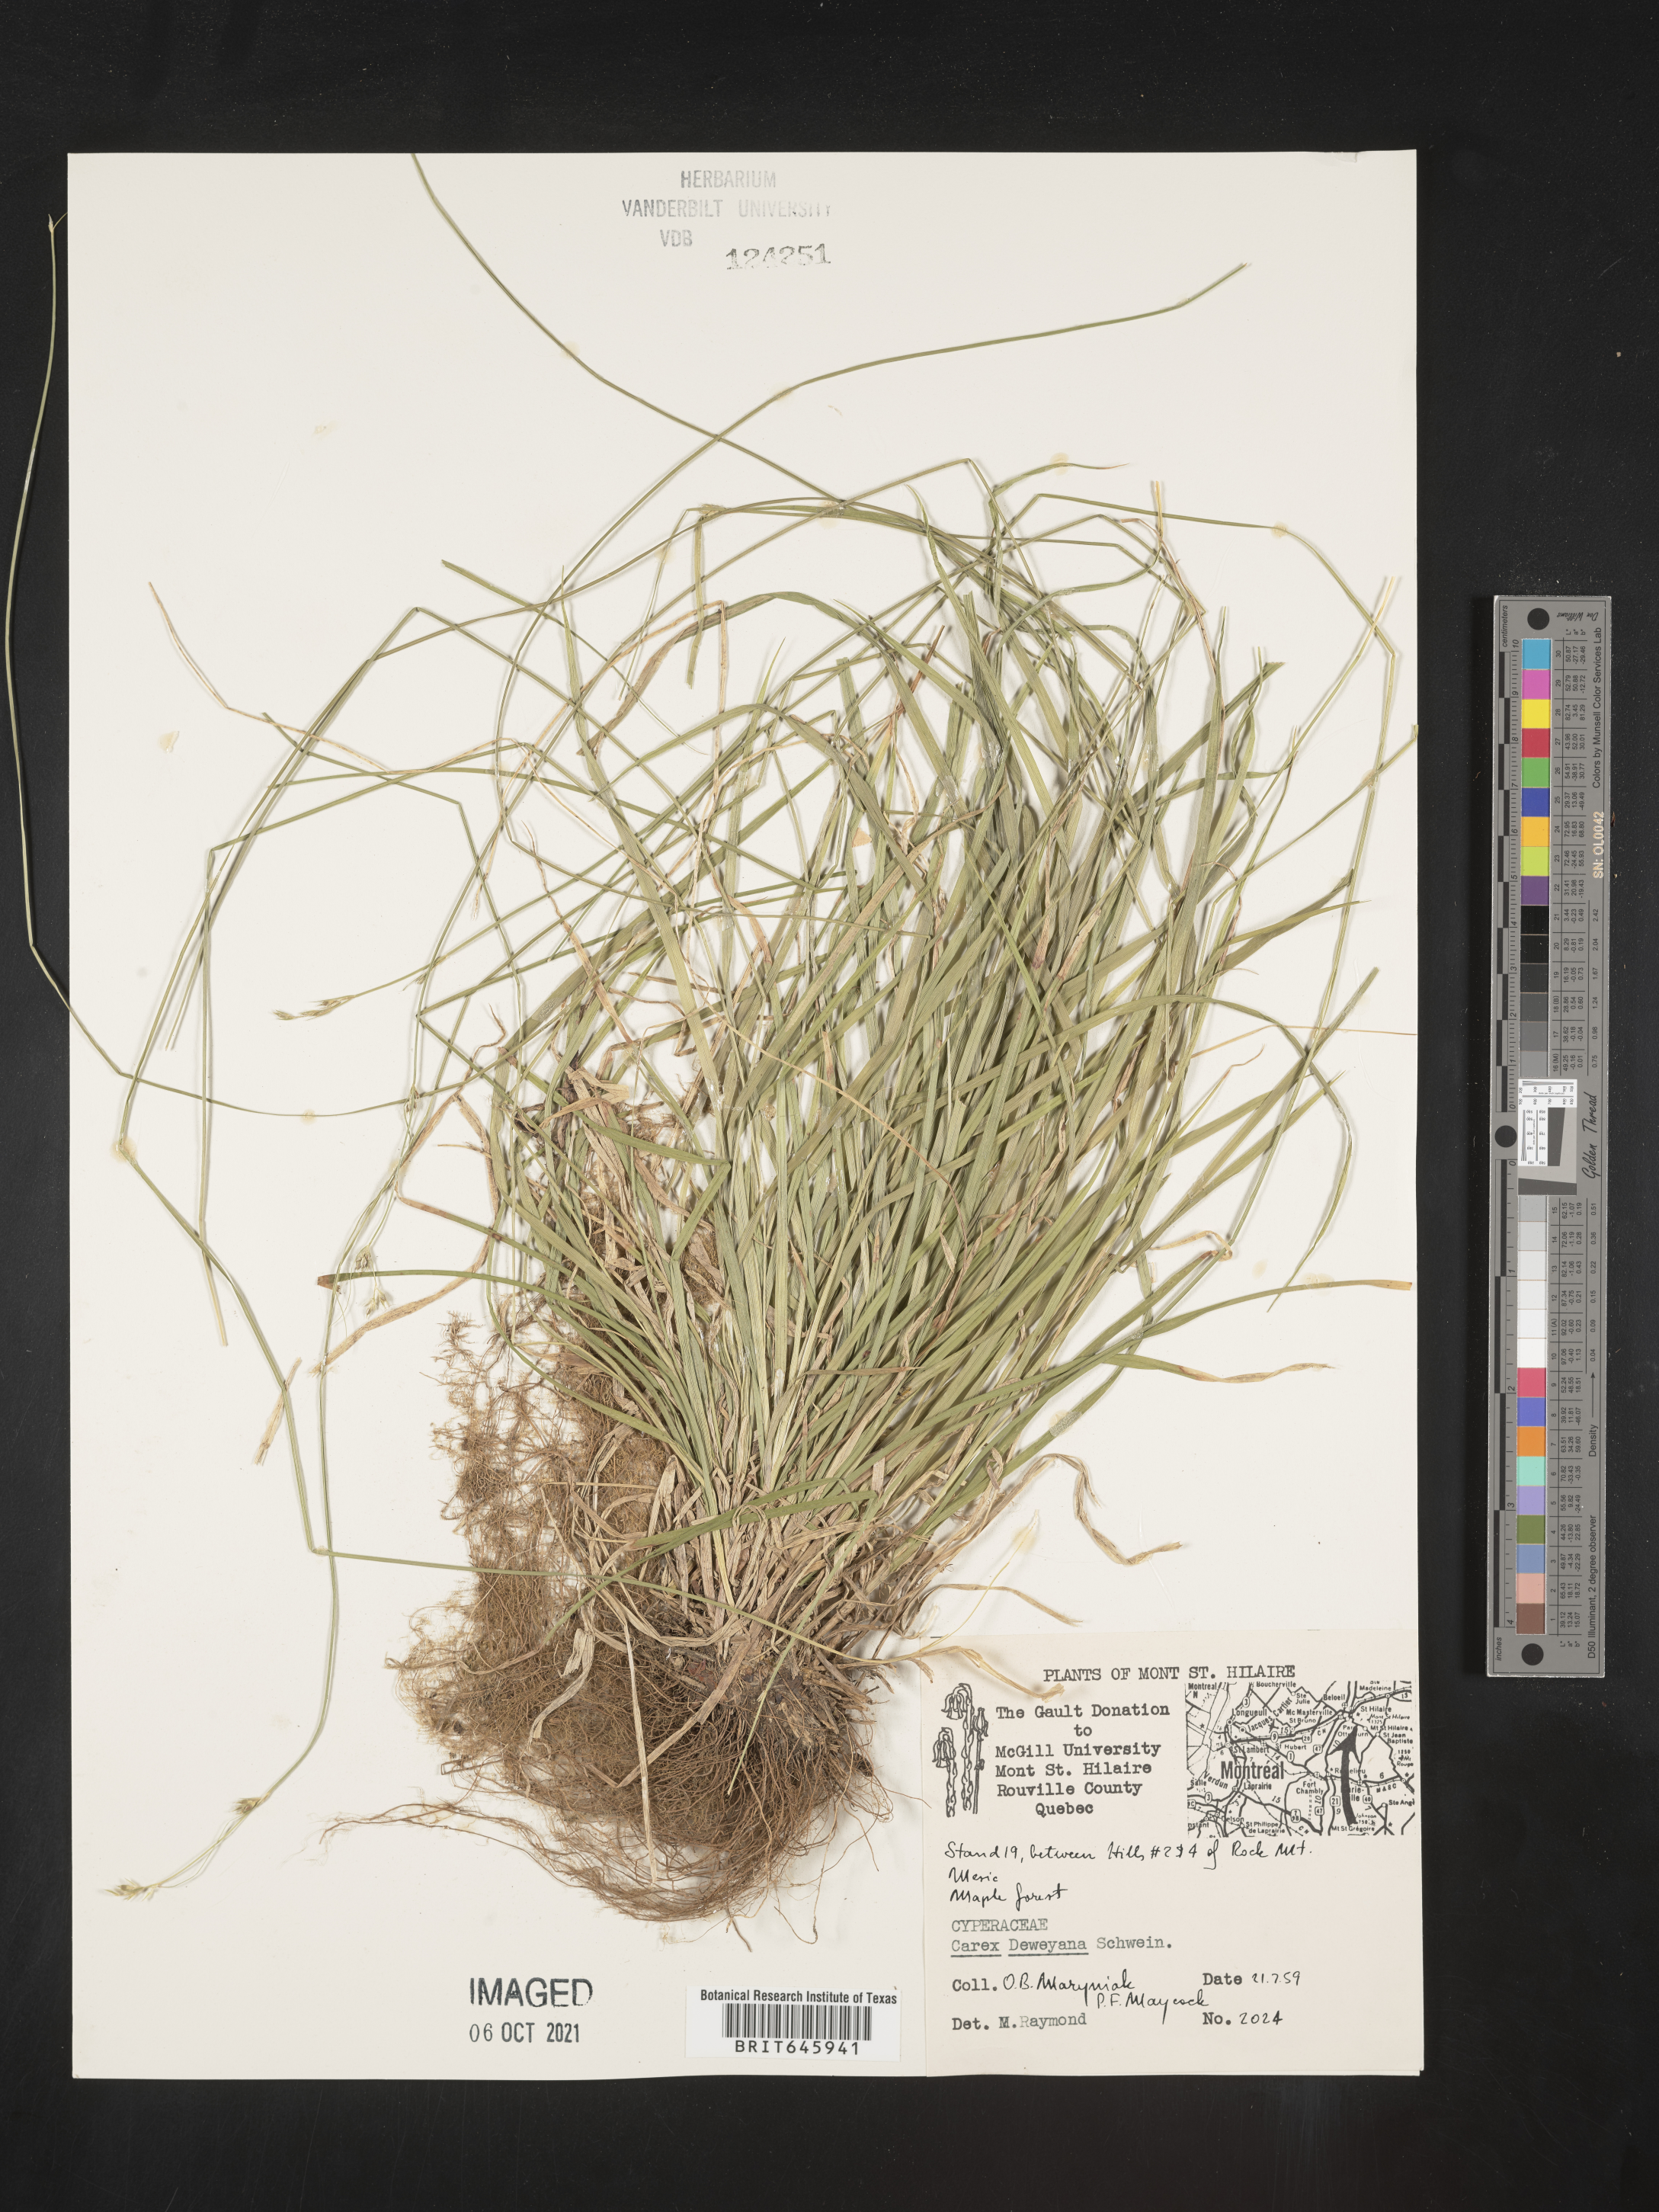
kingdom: Plantae
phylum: Tracheophyta
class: Liliopsida
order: Poales
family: Cyperaceae
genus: Carex
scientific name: Carex deweyana
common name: Dewey's sedge
